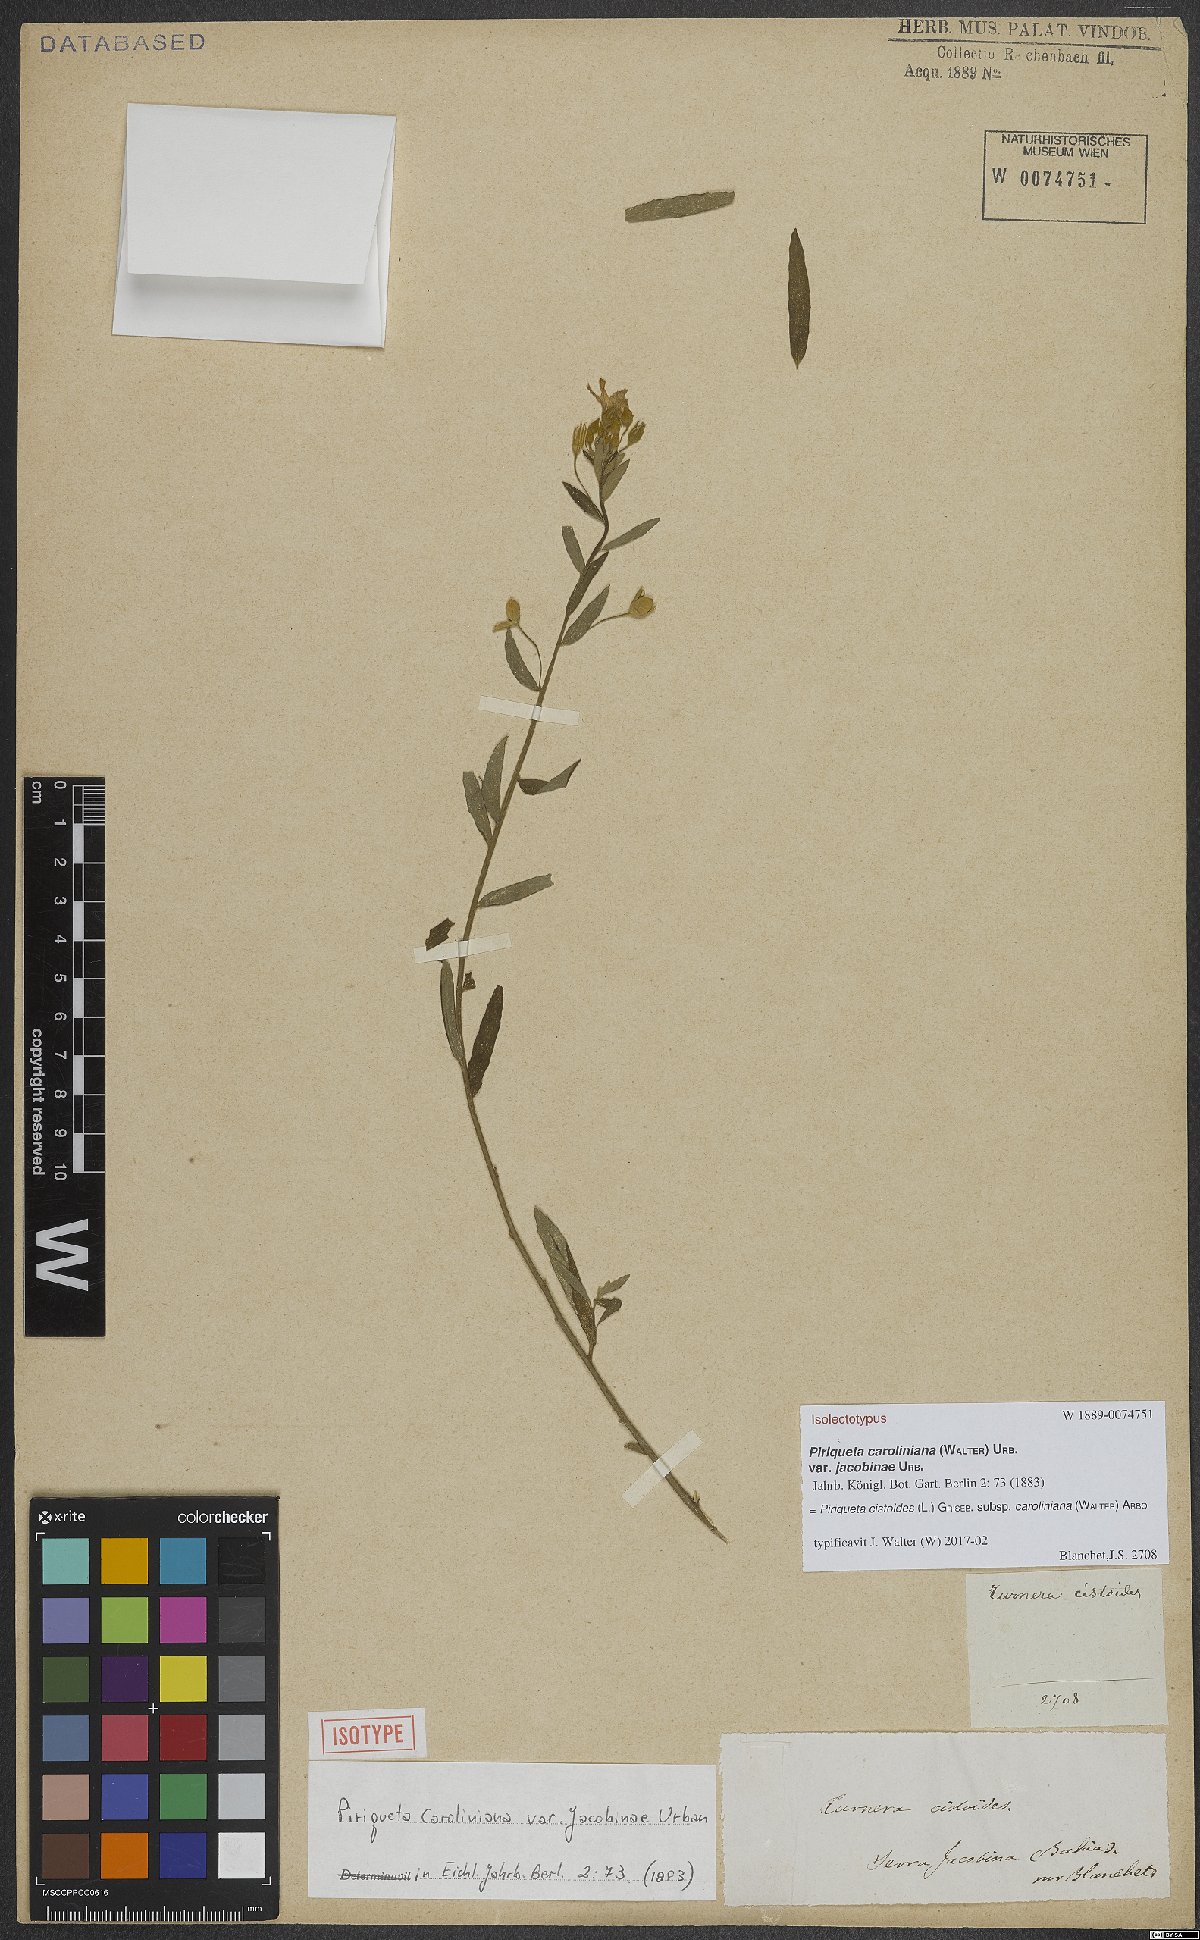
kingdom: Plantae
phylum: Tracheophyta
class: Magnoliopsida
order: Malpighiales
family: Turneraceae
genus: Piriqueta
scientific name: Piriqueta cistoides
